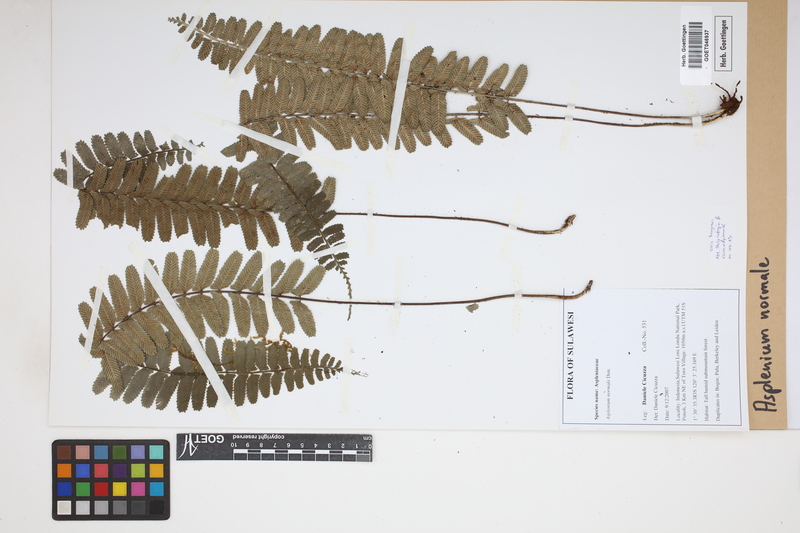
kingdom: Plantae
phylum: Tracheophyta
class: Polypodiopsida
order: Polypodiales
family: Aspleniaceae
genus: Asplenium
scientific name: Asplenium normale
